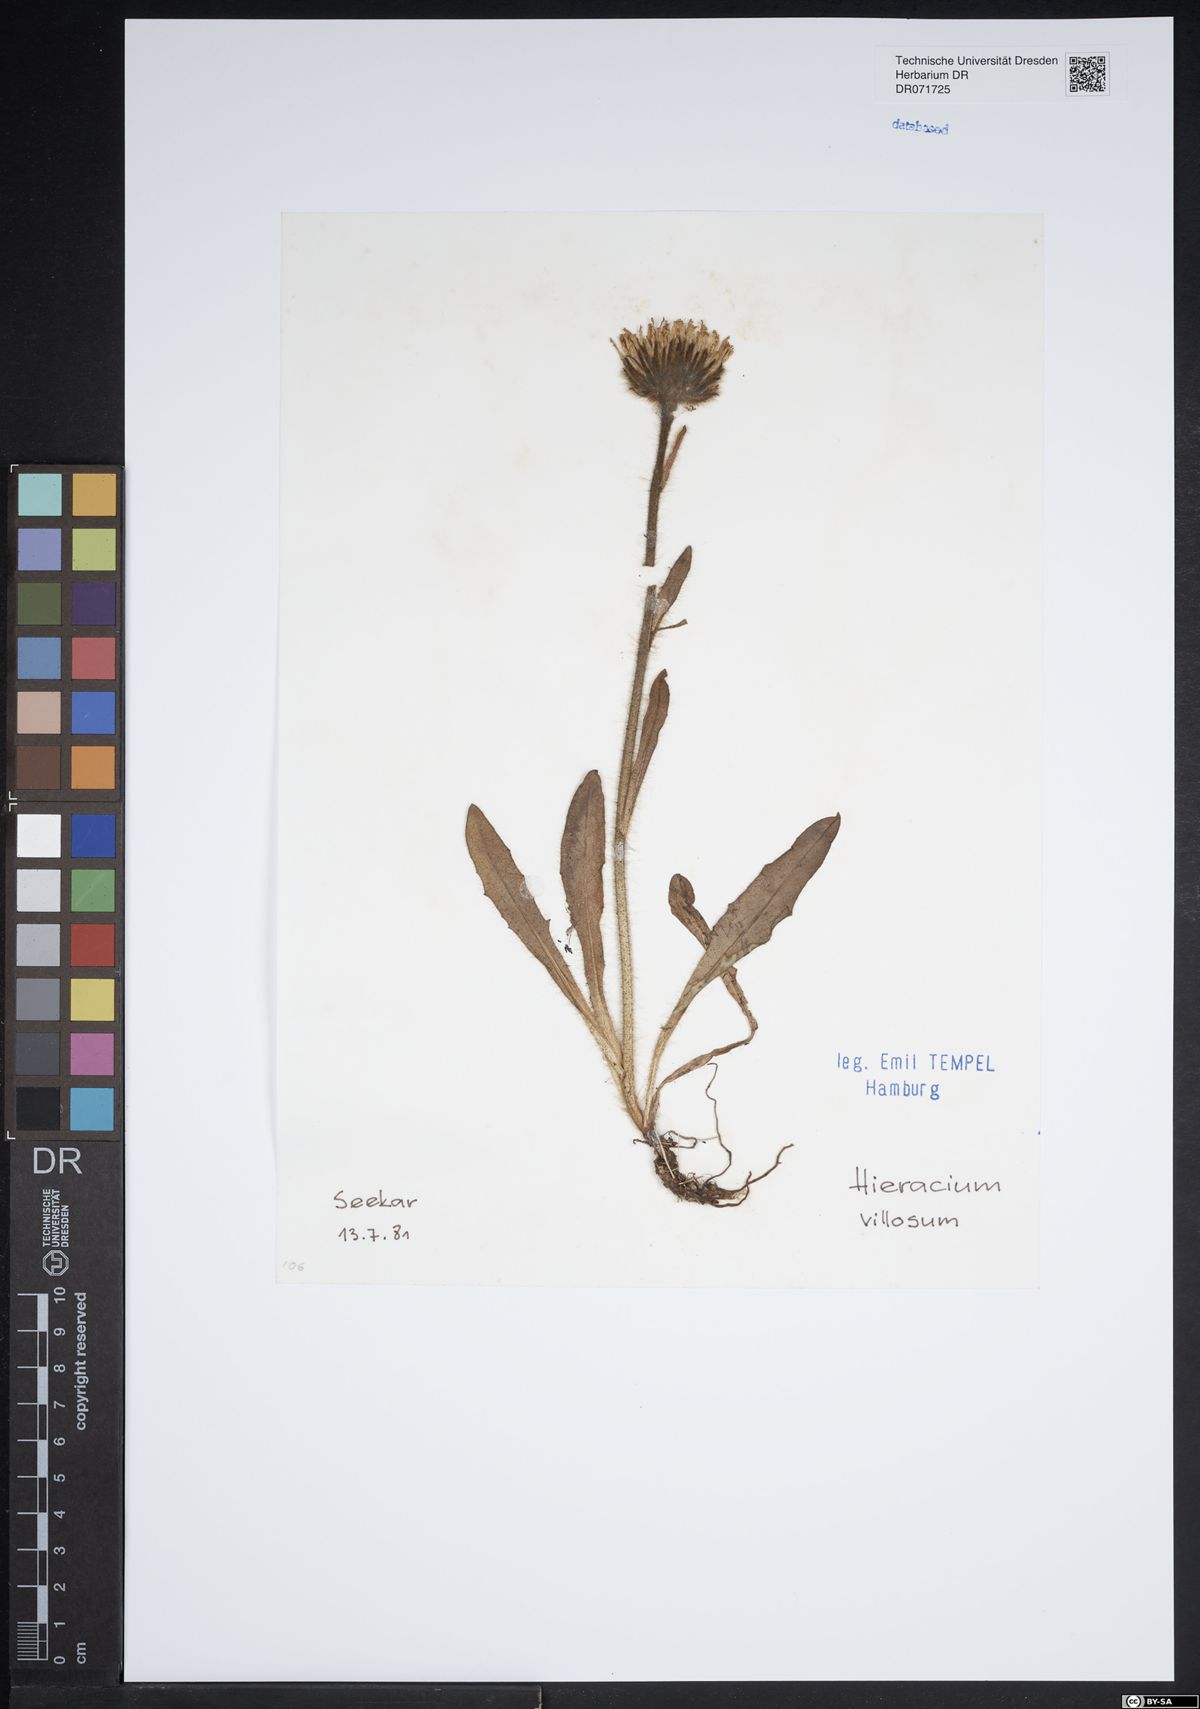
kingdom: Plantae
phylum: Tracheophyta
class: Magnoliopsida
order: Asterales
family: Asteraceae
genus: Hieracium
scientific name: Hieracium villosum
